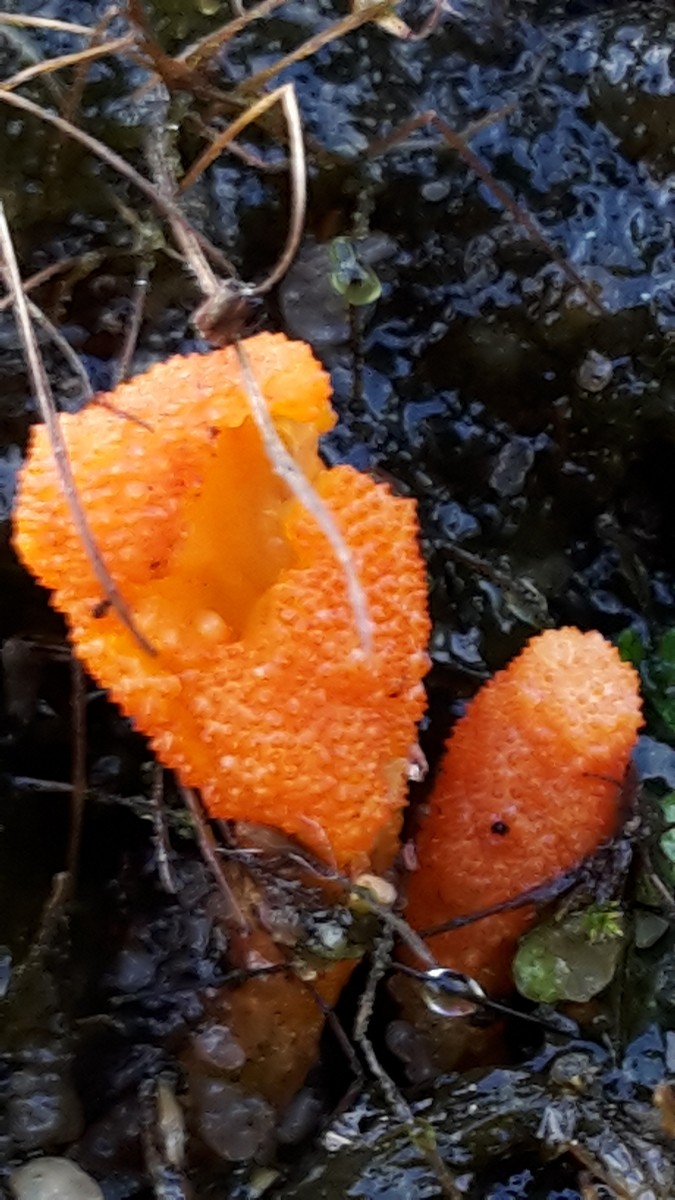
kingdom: Fungi
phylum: Ascomycota
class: Sordariomycetes
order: Hypocreales
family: Cordycipitaceae
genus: Cordyceps
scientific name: Cordyceps militaris
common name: puppe-snyltekølle
